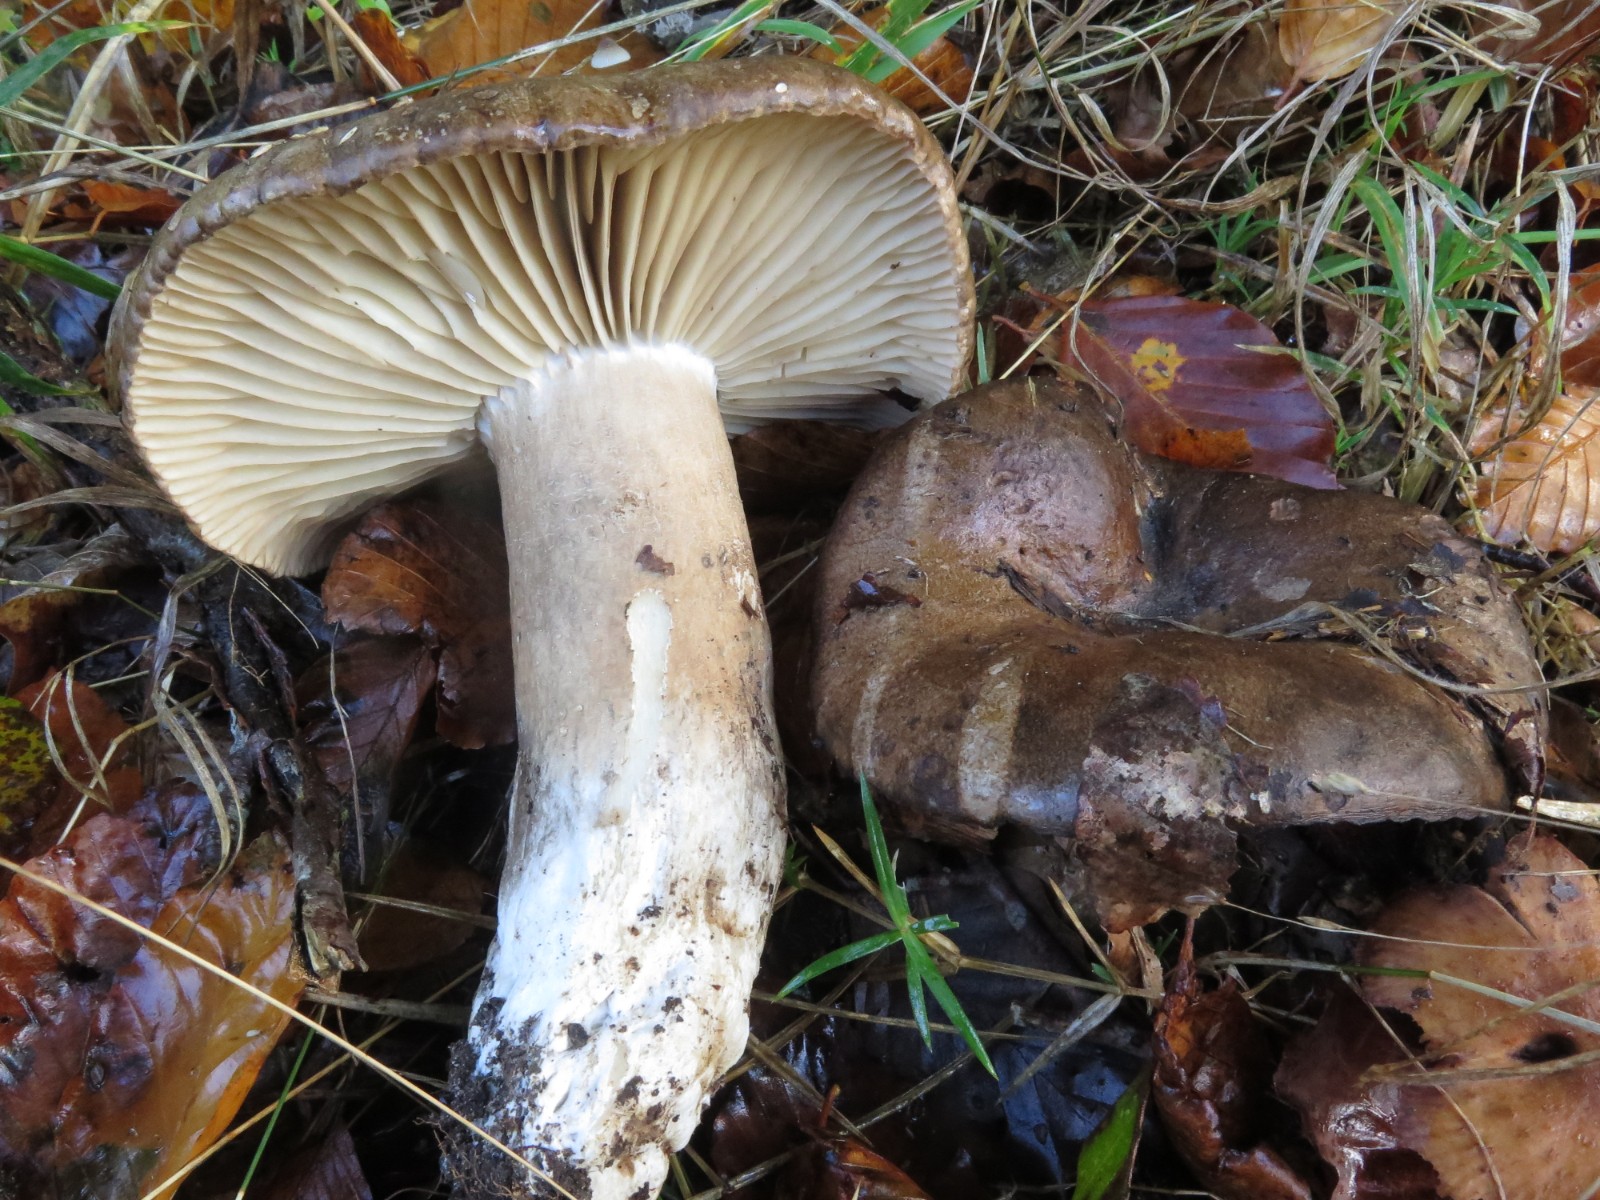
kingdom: Fungi
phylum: Basidiomycota
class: Agaricomycetes
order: Russulales
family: Russulaceae
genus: Russula
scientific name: Russula adusta
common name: sværtende skørhat
